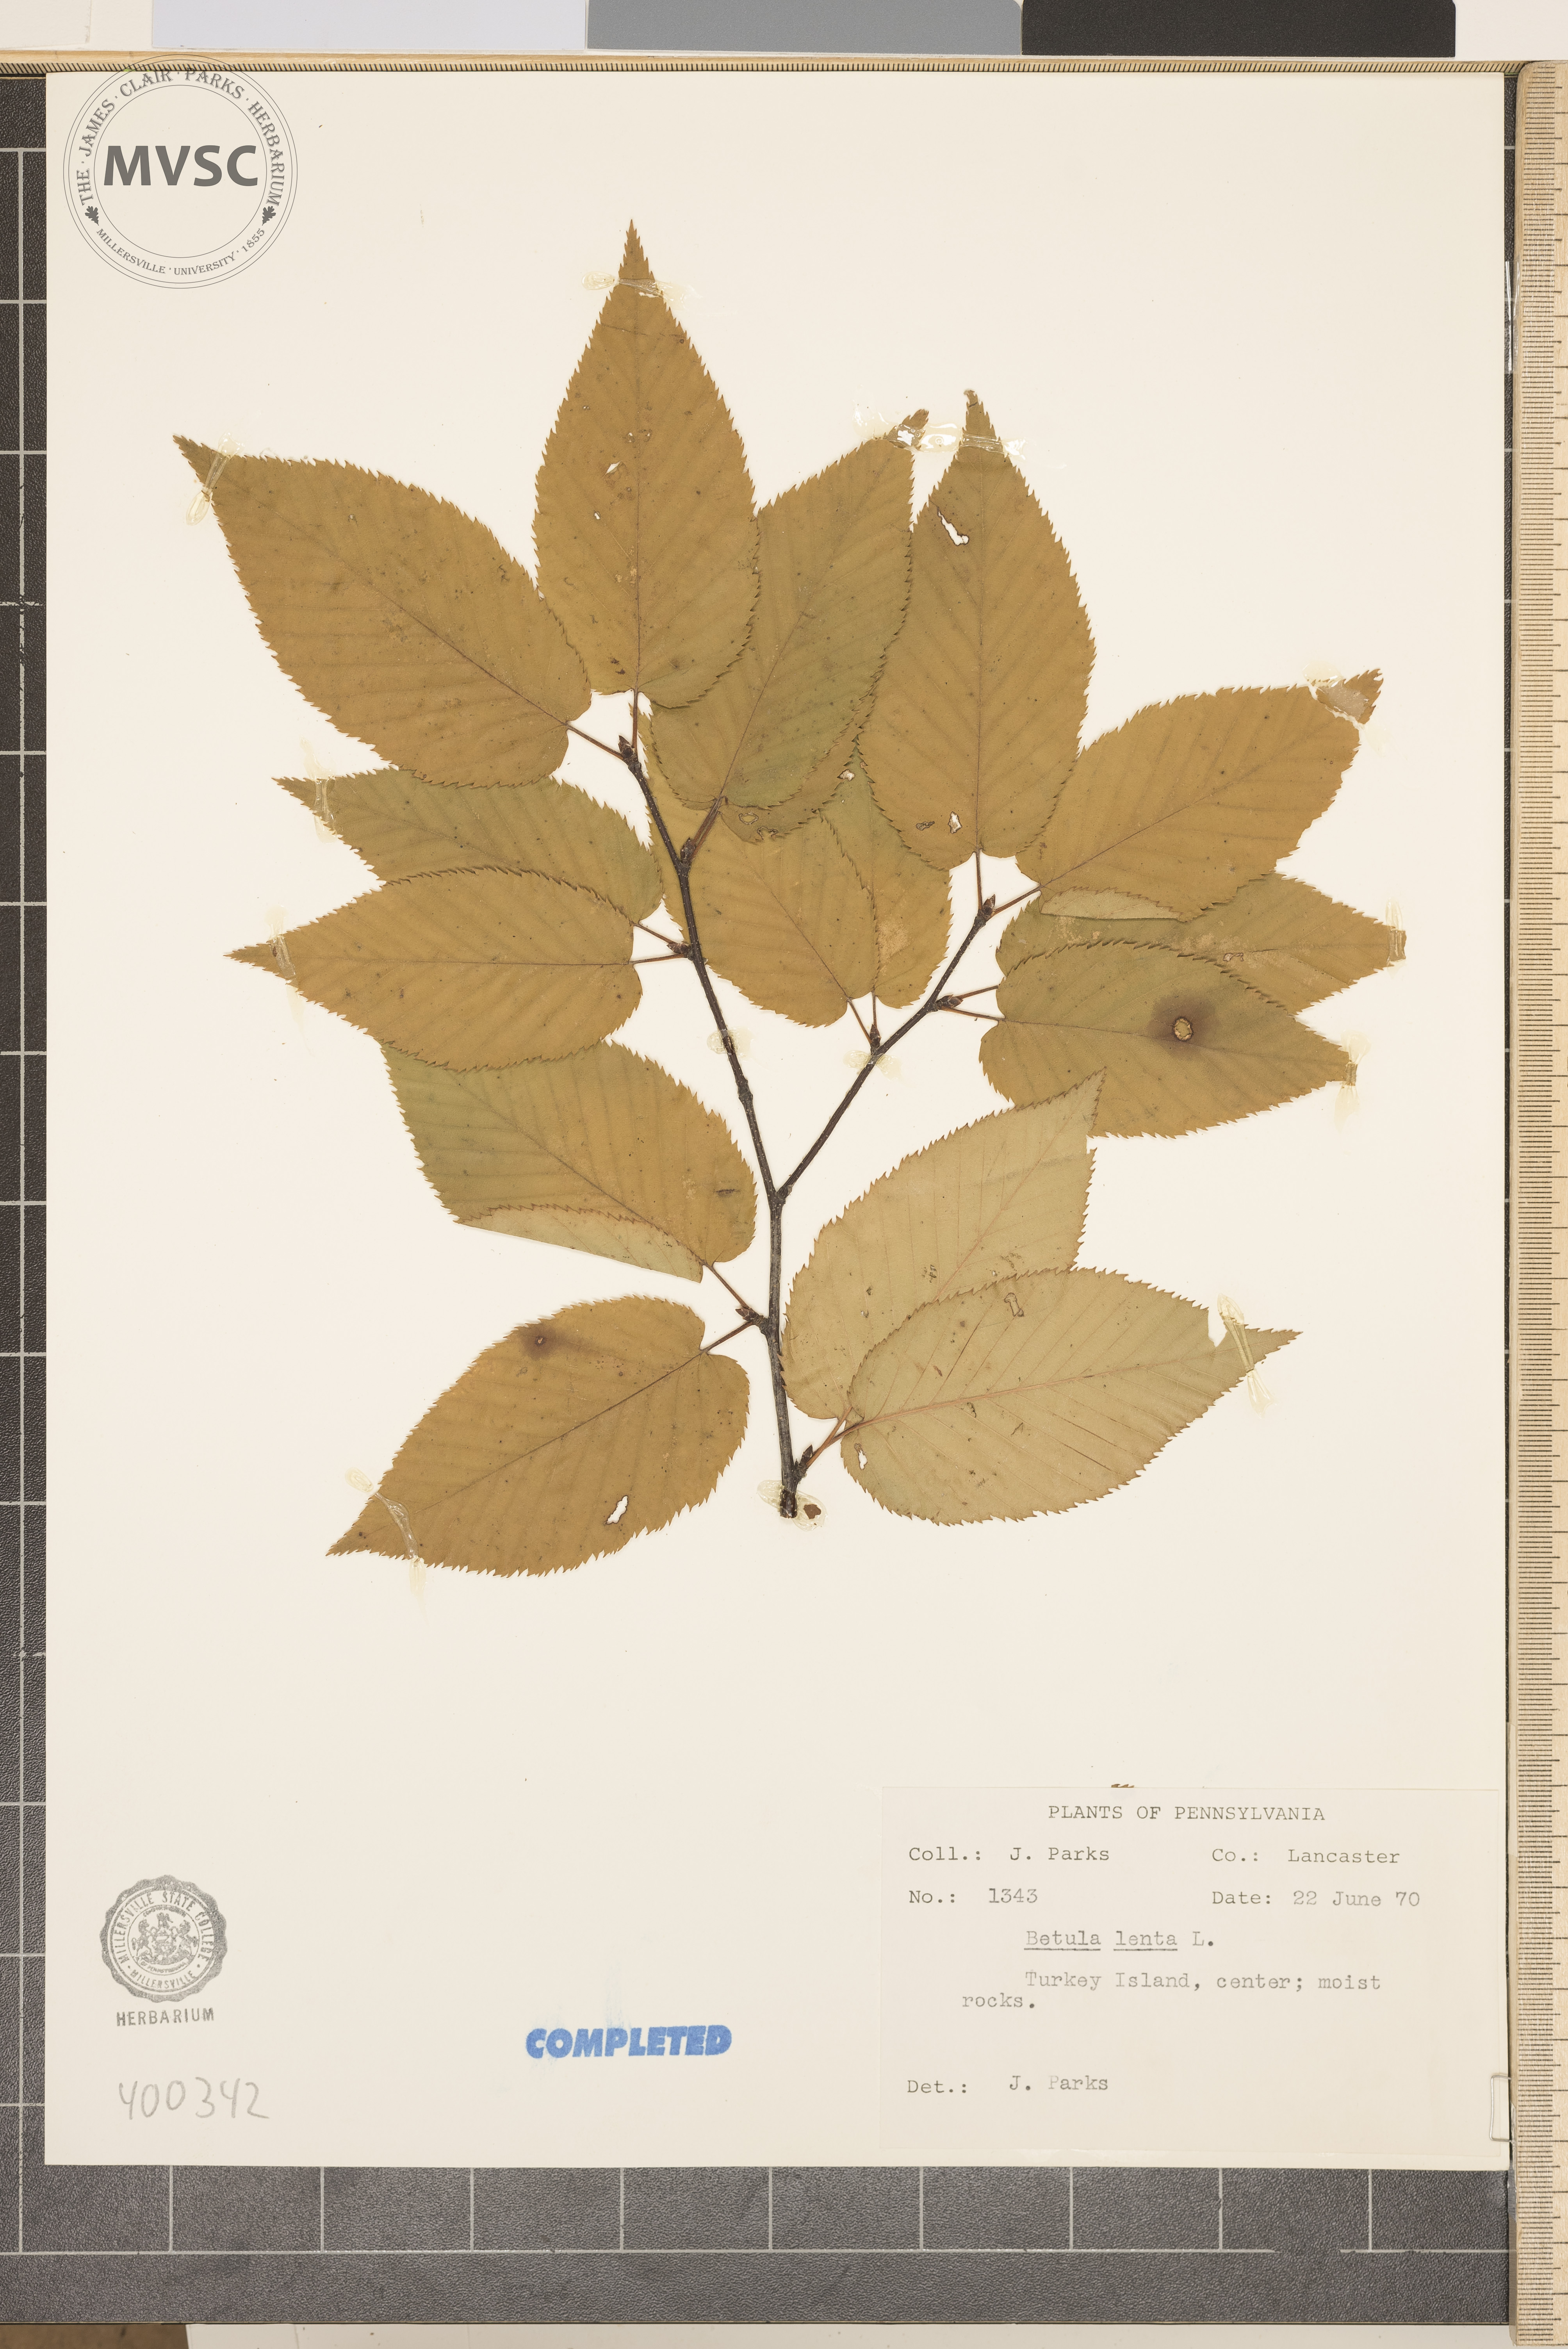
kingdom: Plantae
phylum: Tracheophyta
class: Magnoliopsida
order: Fagales
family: Betulaceae
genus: Betula
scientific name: Betula lenta
